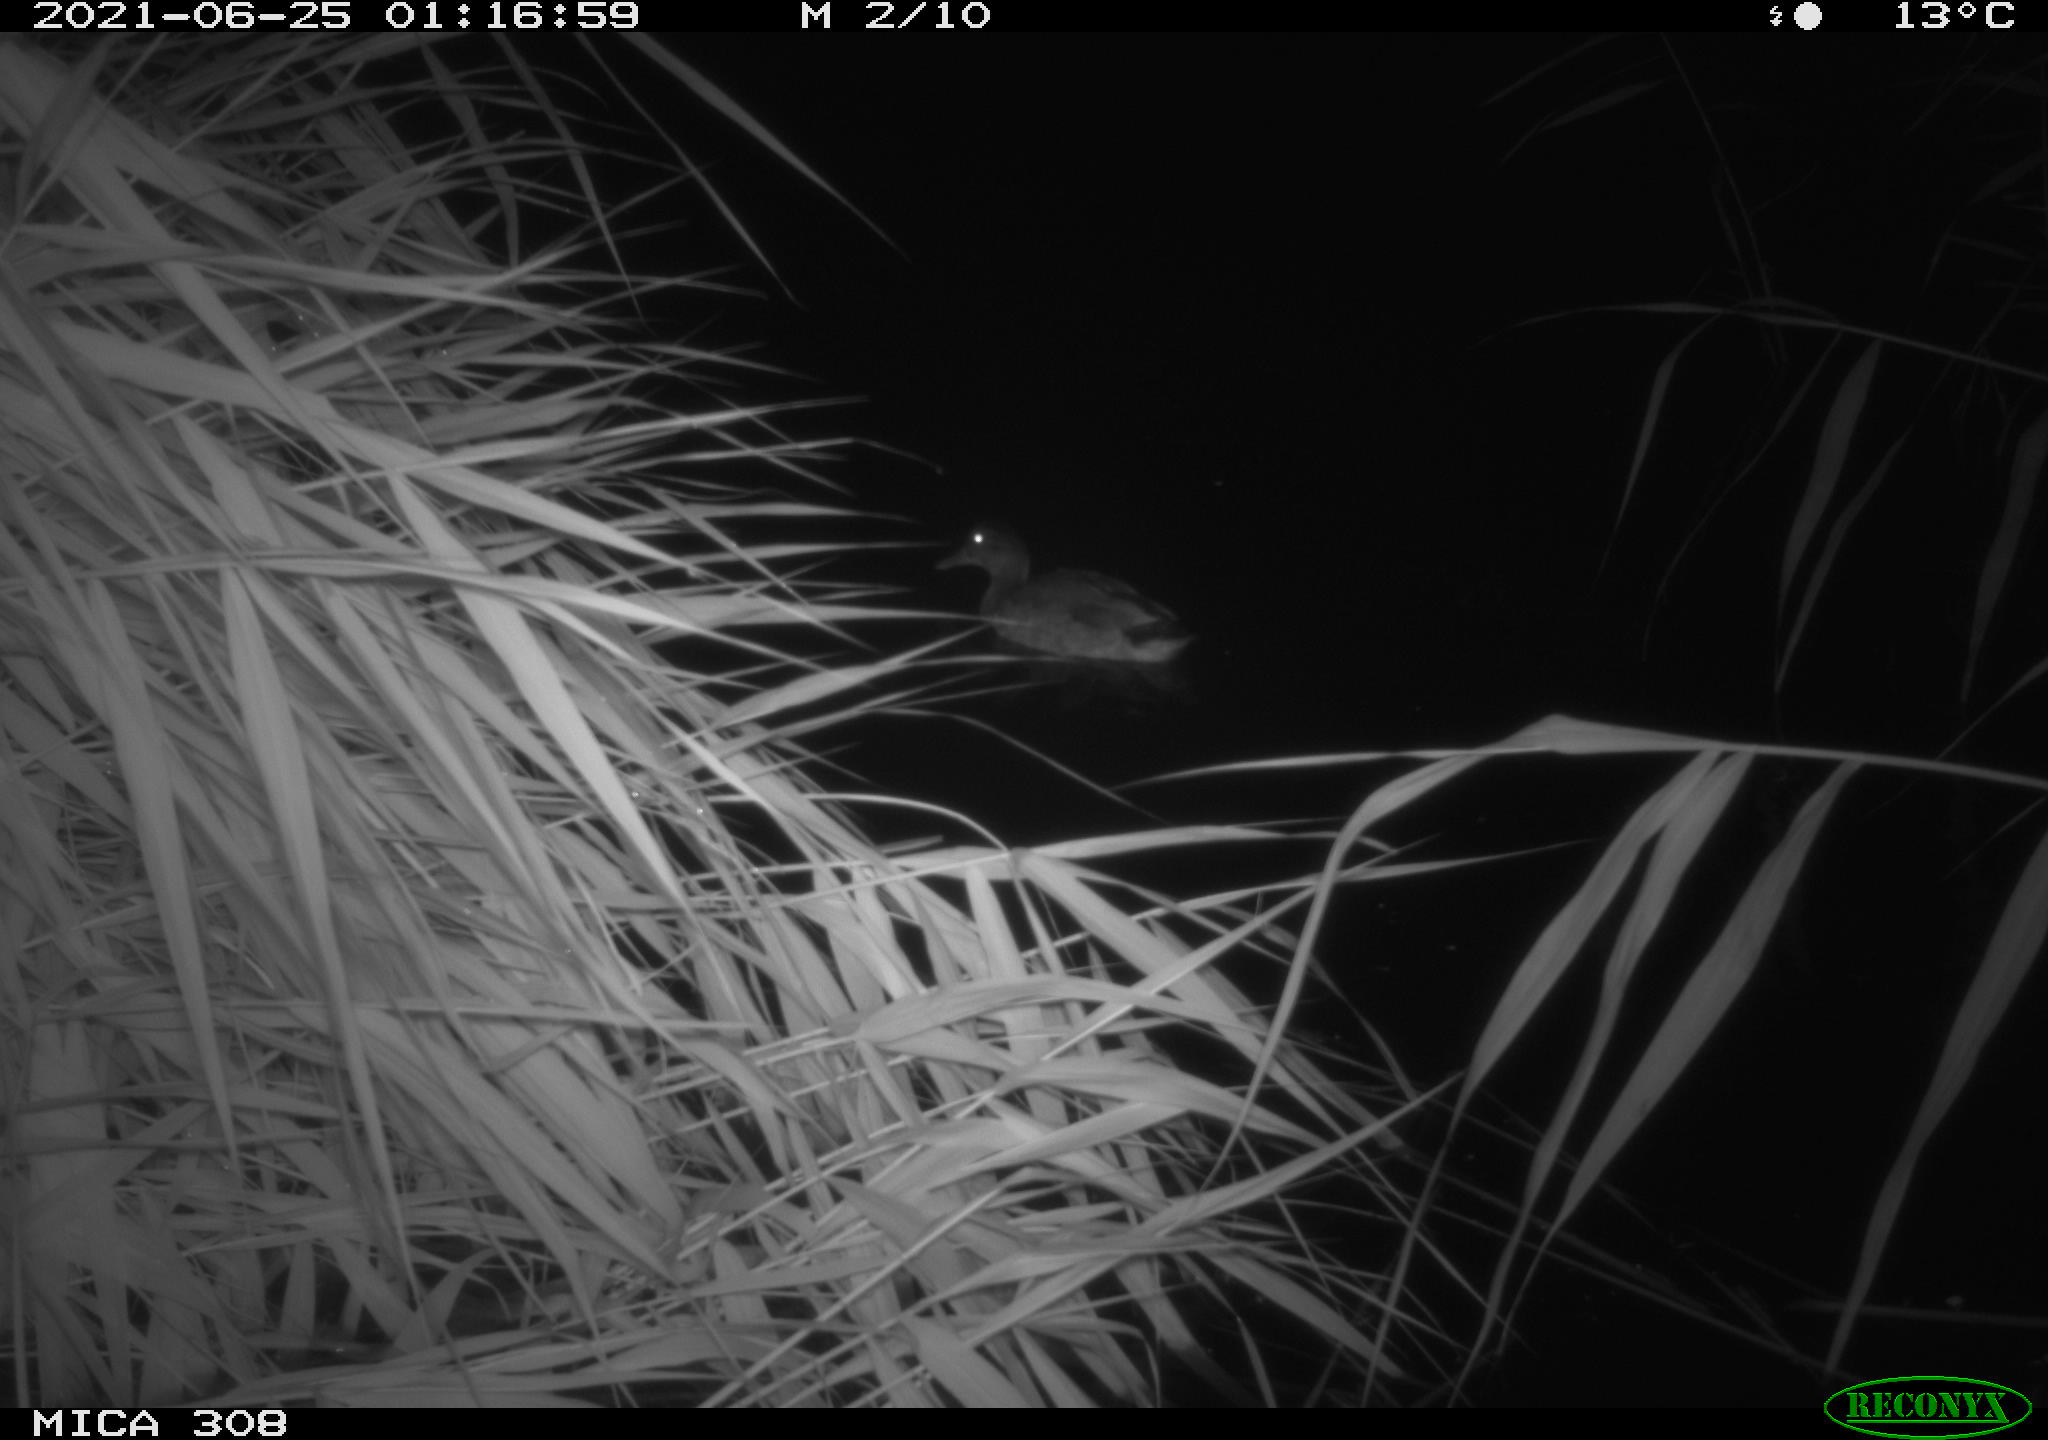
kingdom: Animalia
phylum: Chordata
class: Aves
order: Anseriformes
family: Anatidae
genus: Anas
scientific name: Anas platyrhynchos
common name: Mallard
